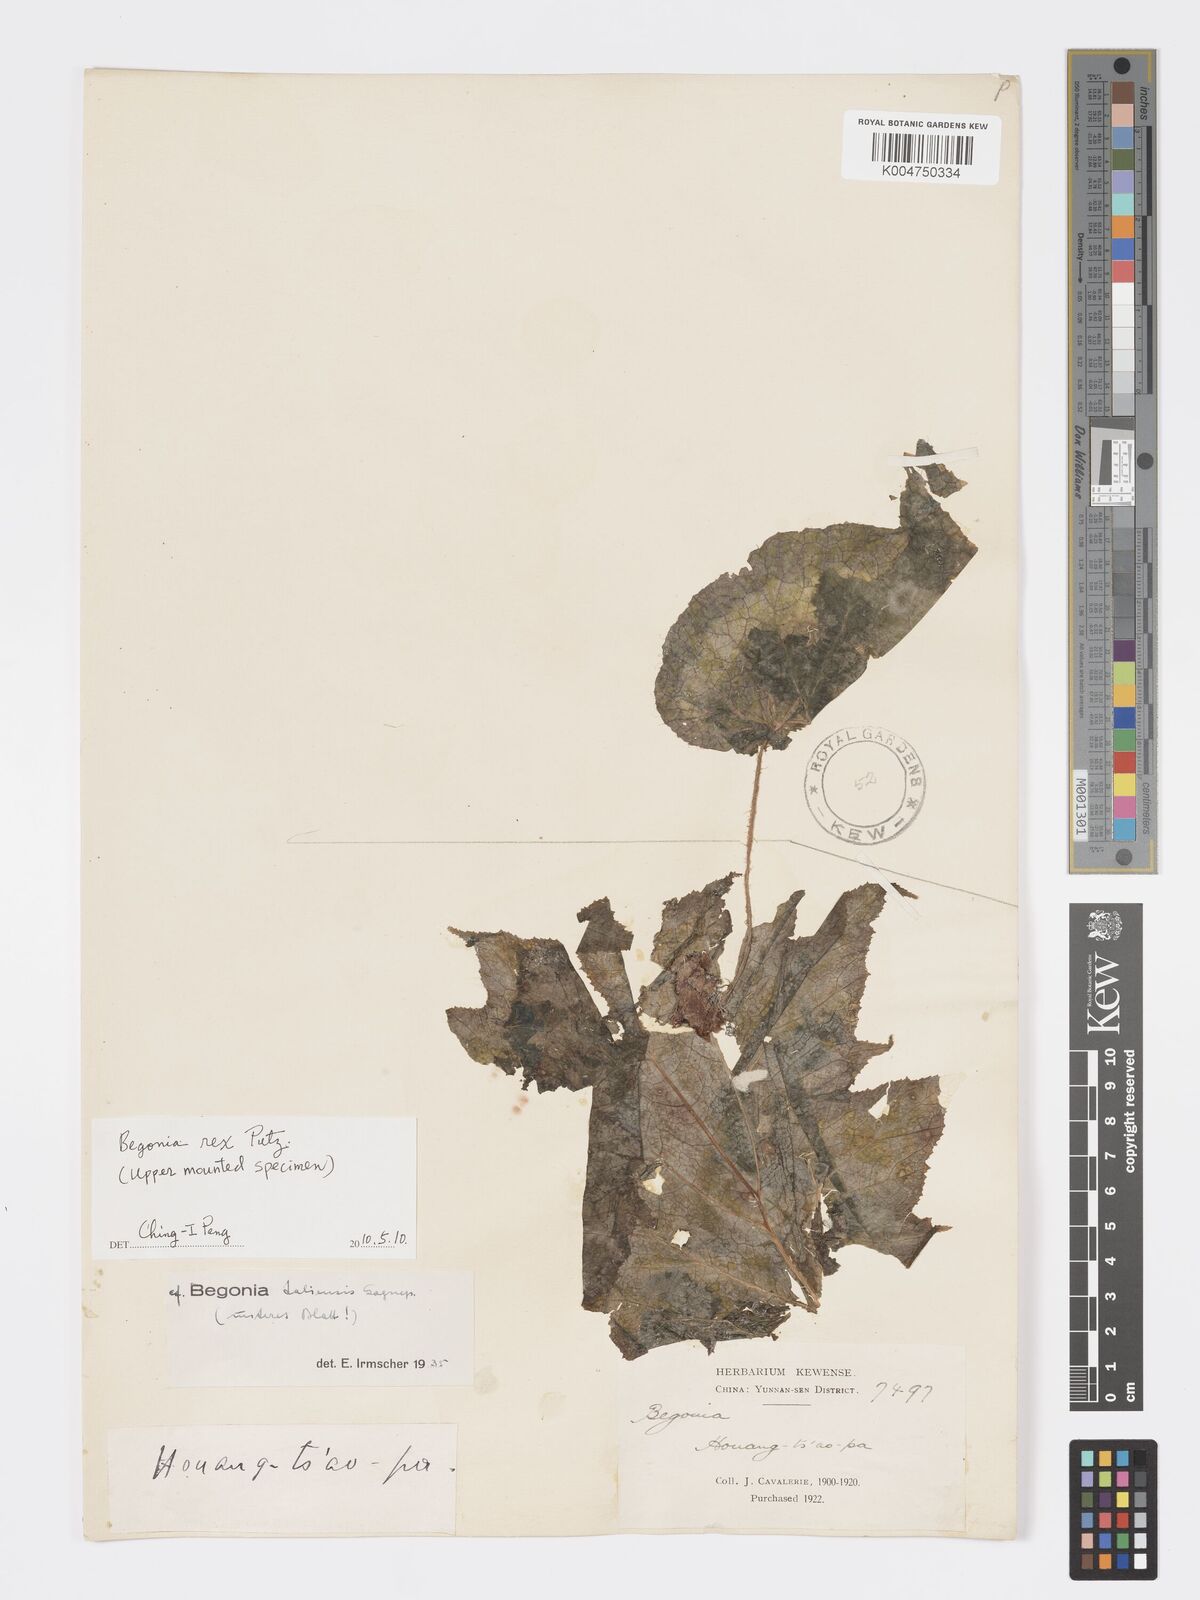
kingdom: Plantae
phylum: Tracheophyta
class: Magnoliopsida
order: Cucurbitales
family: Begoniaceae
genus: Begonia
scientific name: Begonia taliensis
